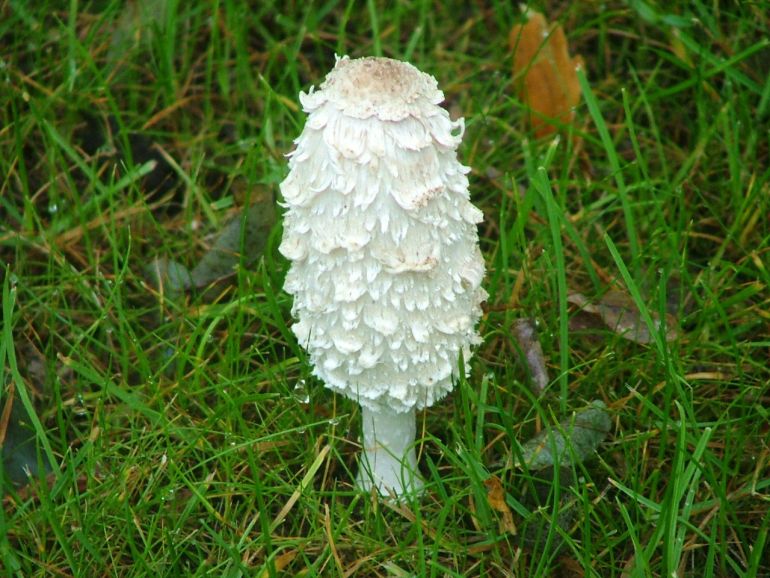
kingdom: Fungi
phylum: Basidiomycota
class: Agaricomycetes
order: Agaricales
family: Agaricaceae
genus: Coprinus
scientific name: Coprinus comatus
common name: stor parykhat
